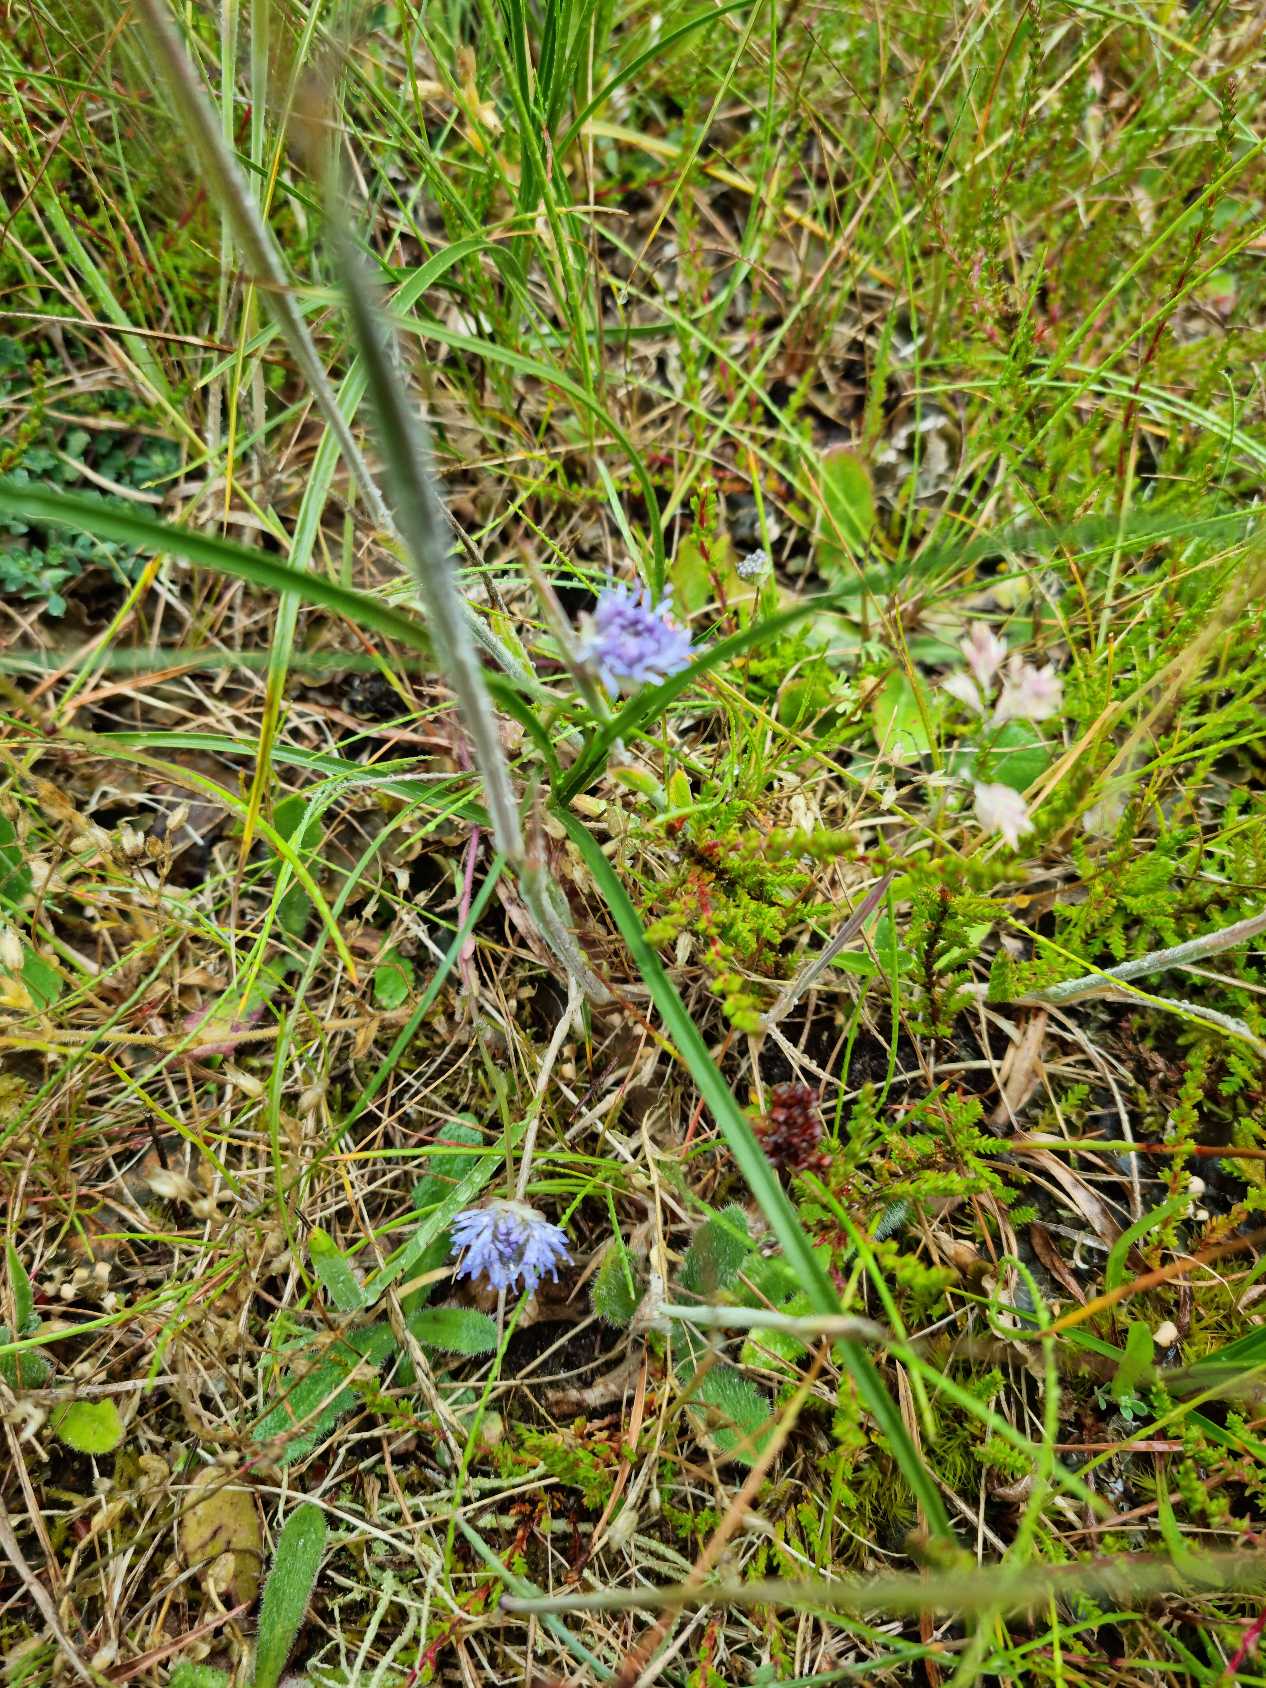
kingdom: Plantae
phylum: Tracheophyta
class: Magnoliopsida
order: Asterales
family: Campanulaceae
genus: Jasione
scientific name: Jasione montana
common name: Blåmunke
